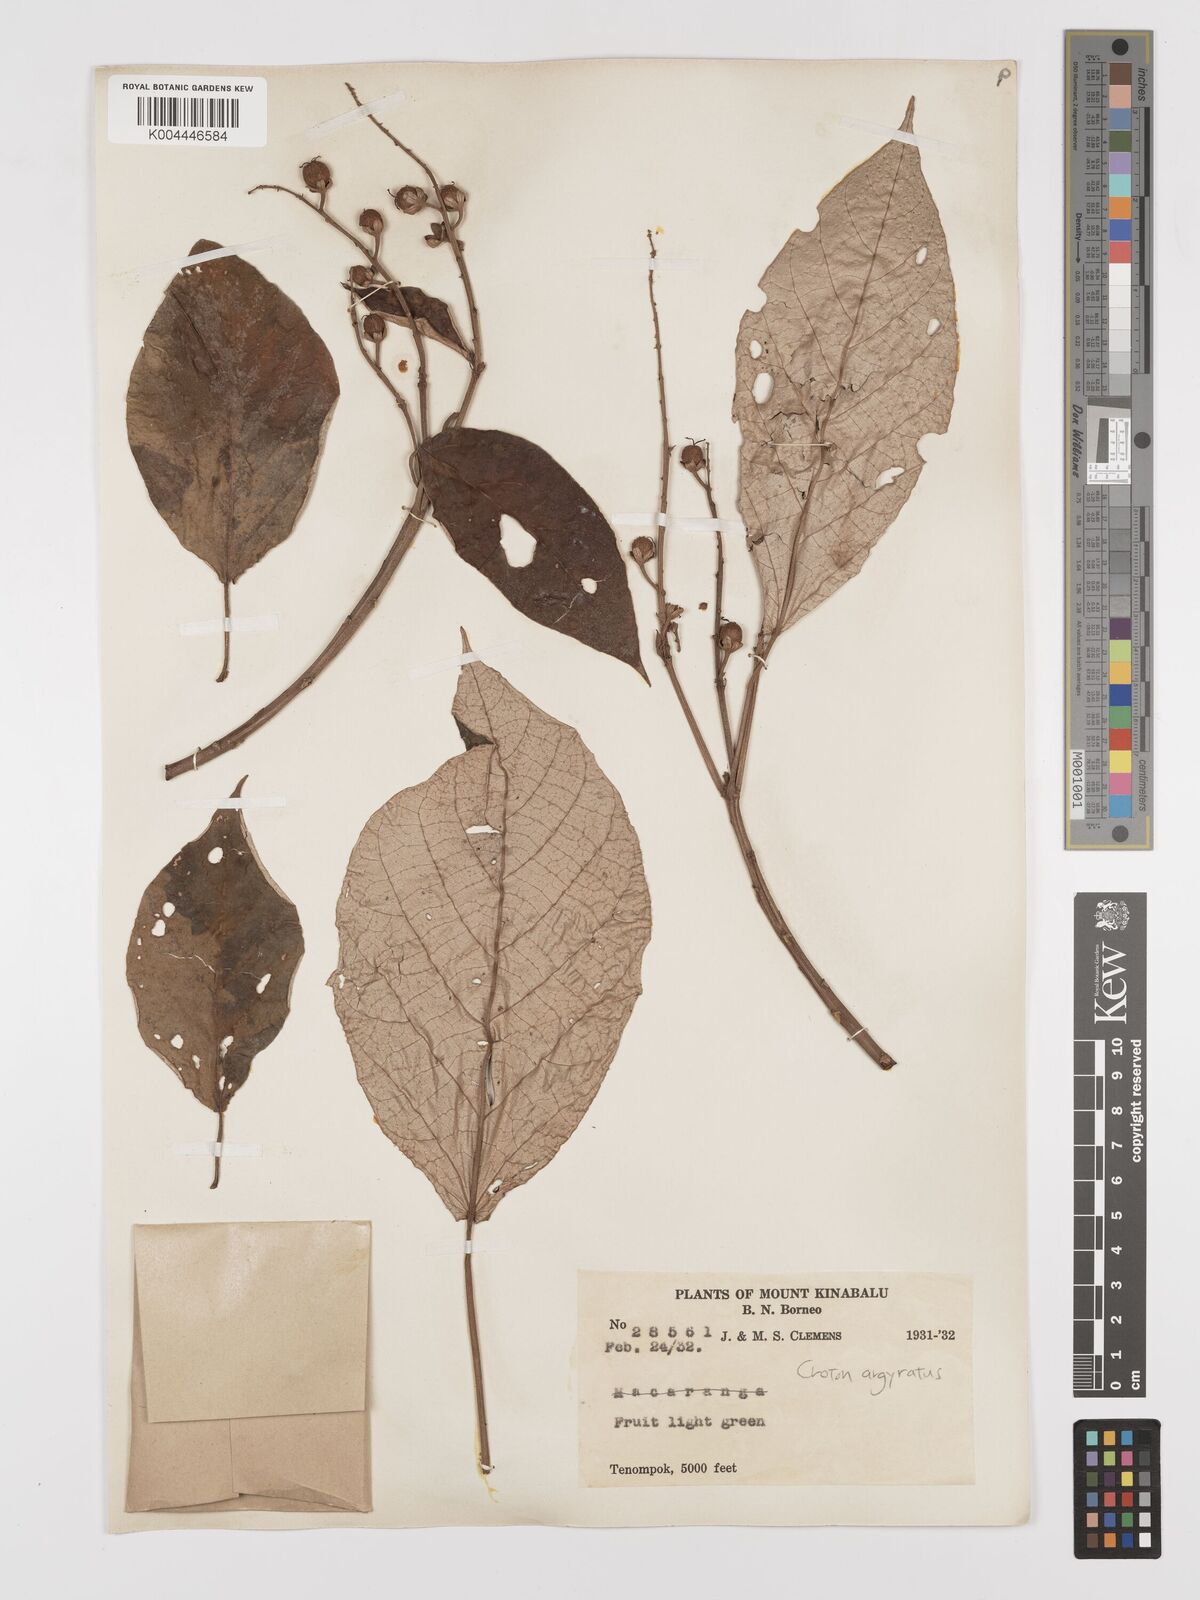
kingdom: Plantae
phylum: Tracheophyta
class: Magnoliopsida
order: Malpighiales
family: Euphorbiaceae
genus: Croton
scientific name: Croton argyratus
